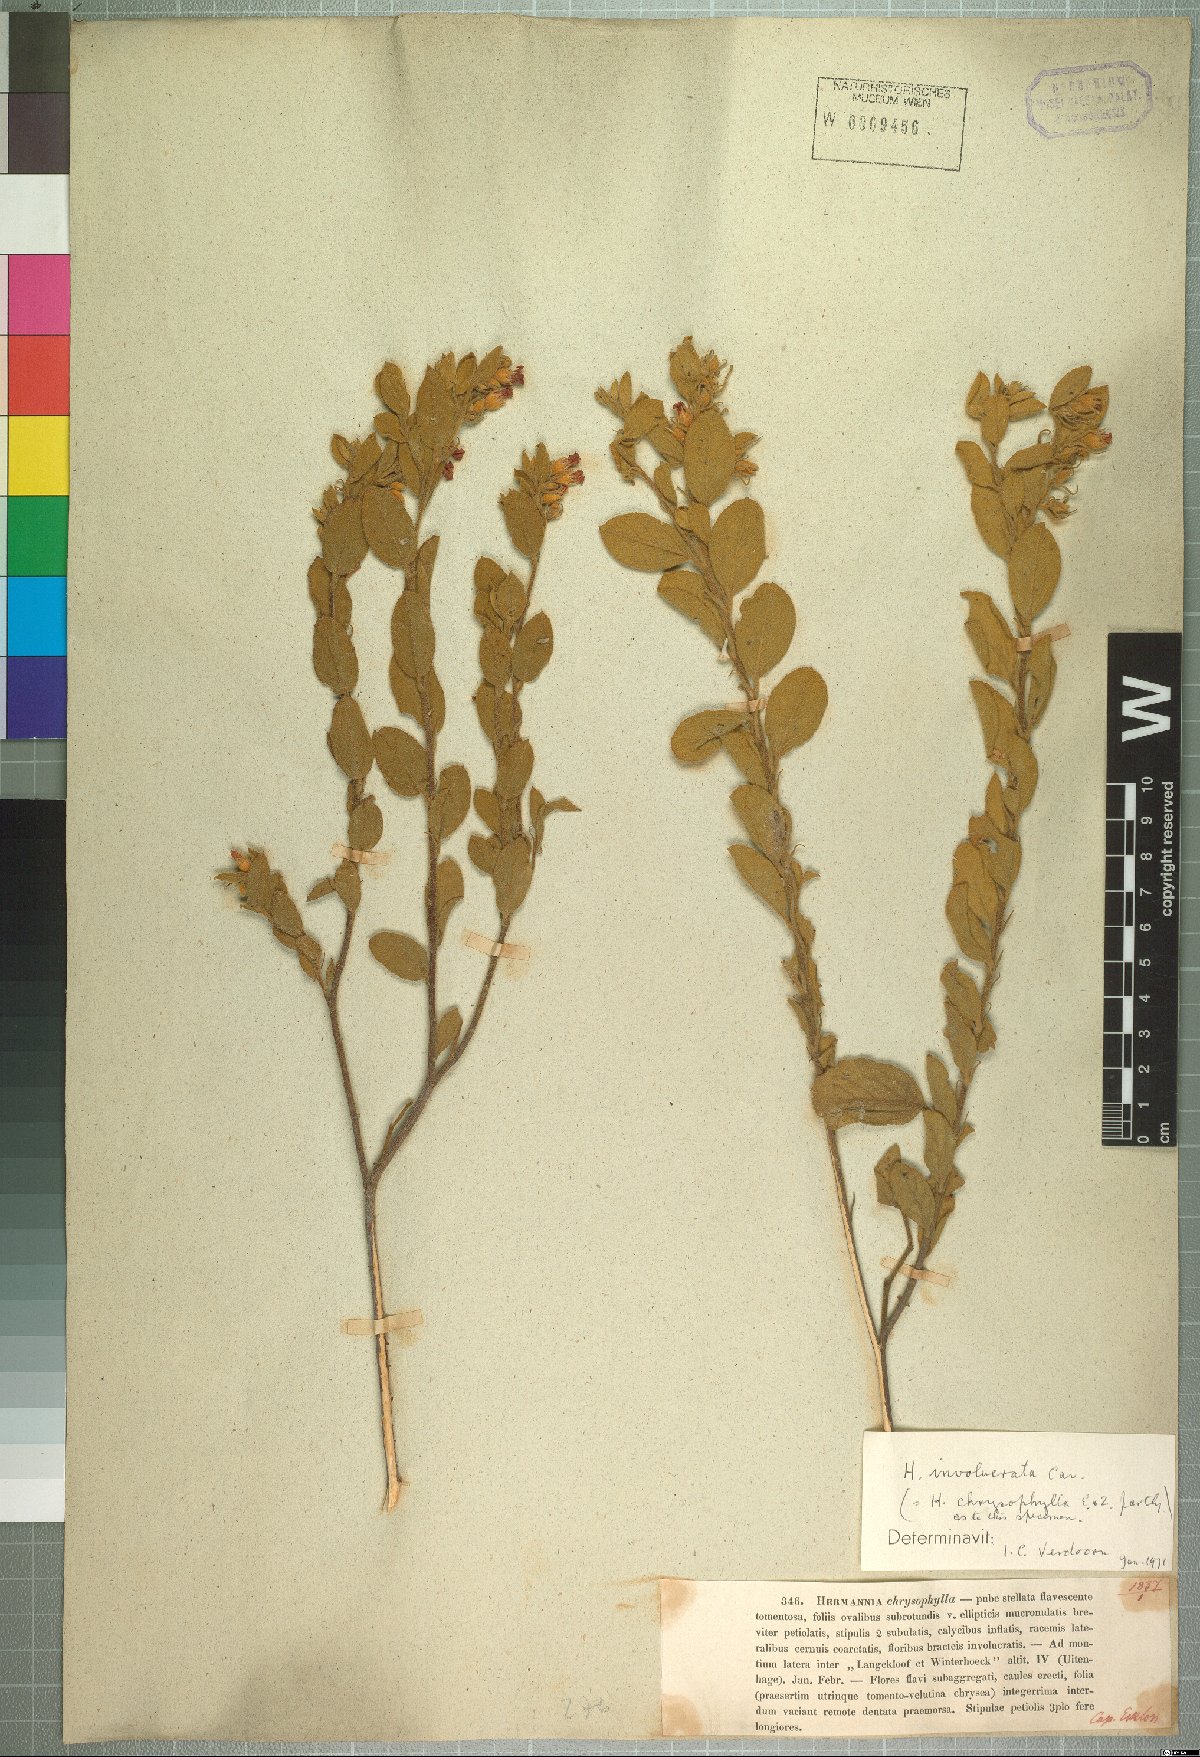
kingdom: Plantae
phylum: Tracheophyta
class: Magnoliopsida
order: Malvales
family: Malvaceae
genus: Hermannia
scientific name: Hermannia involucrata
